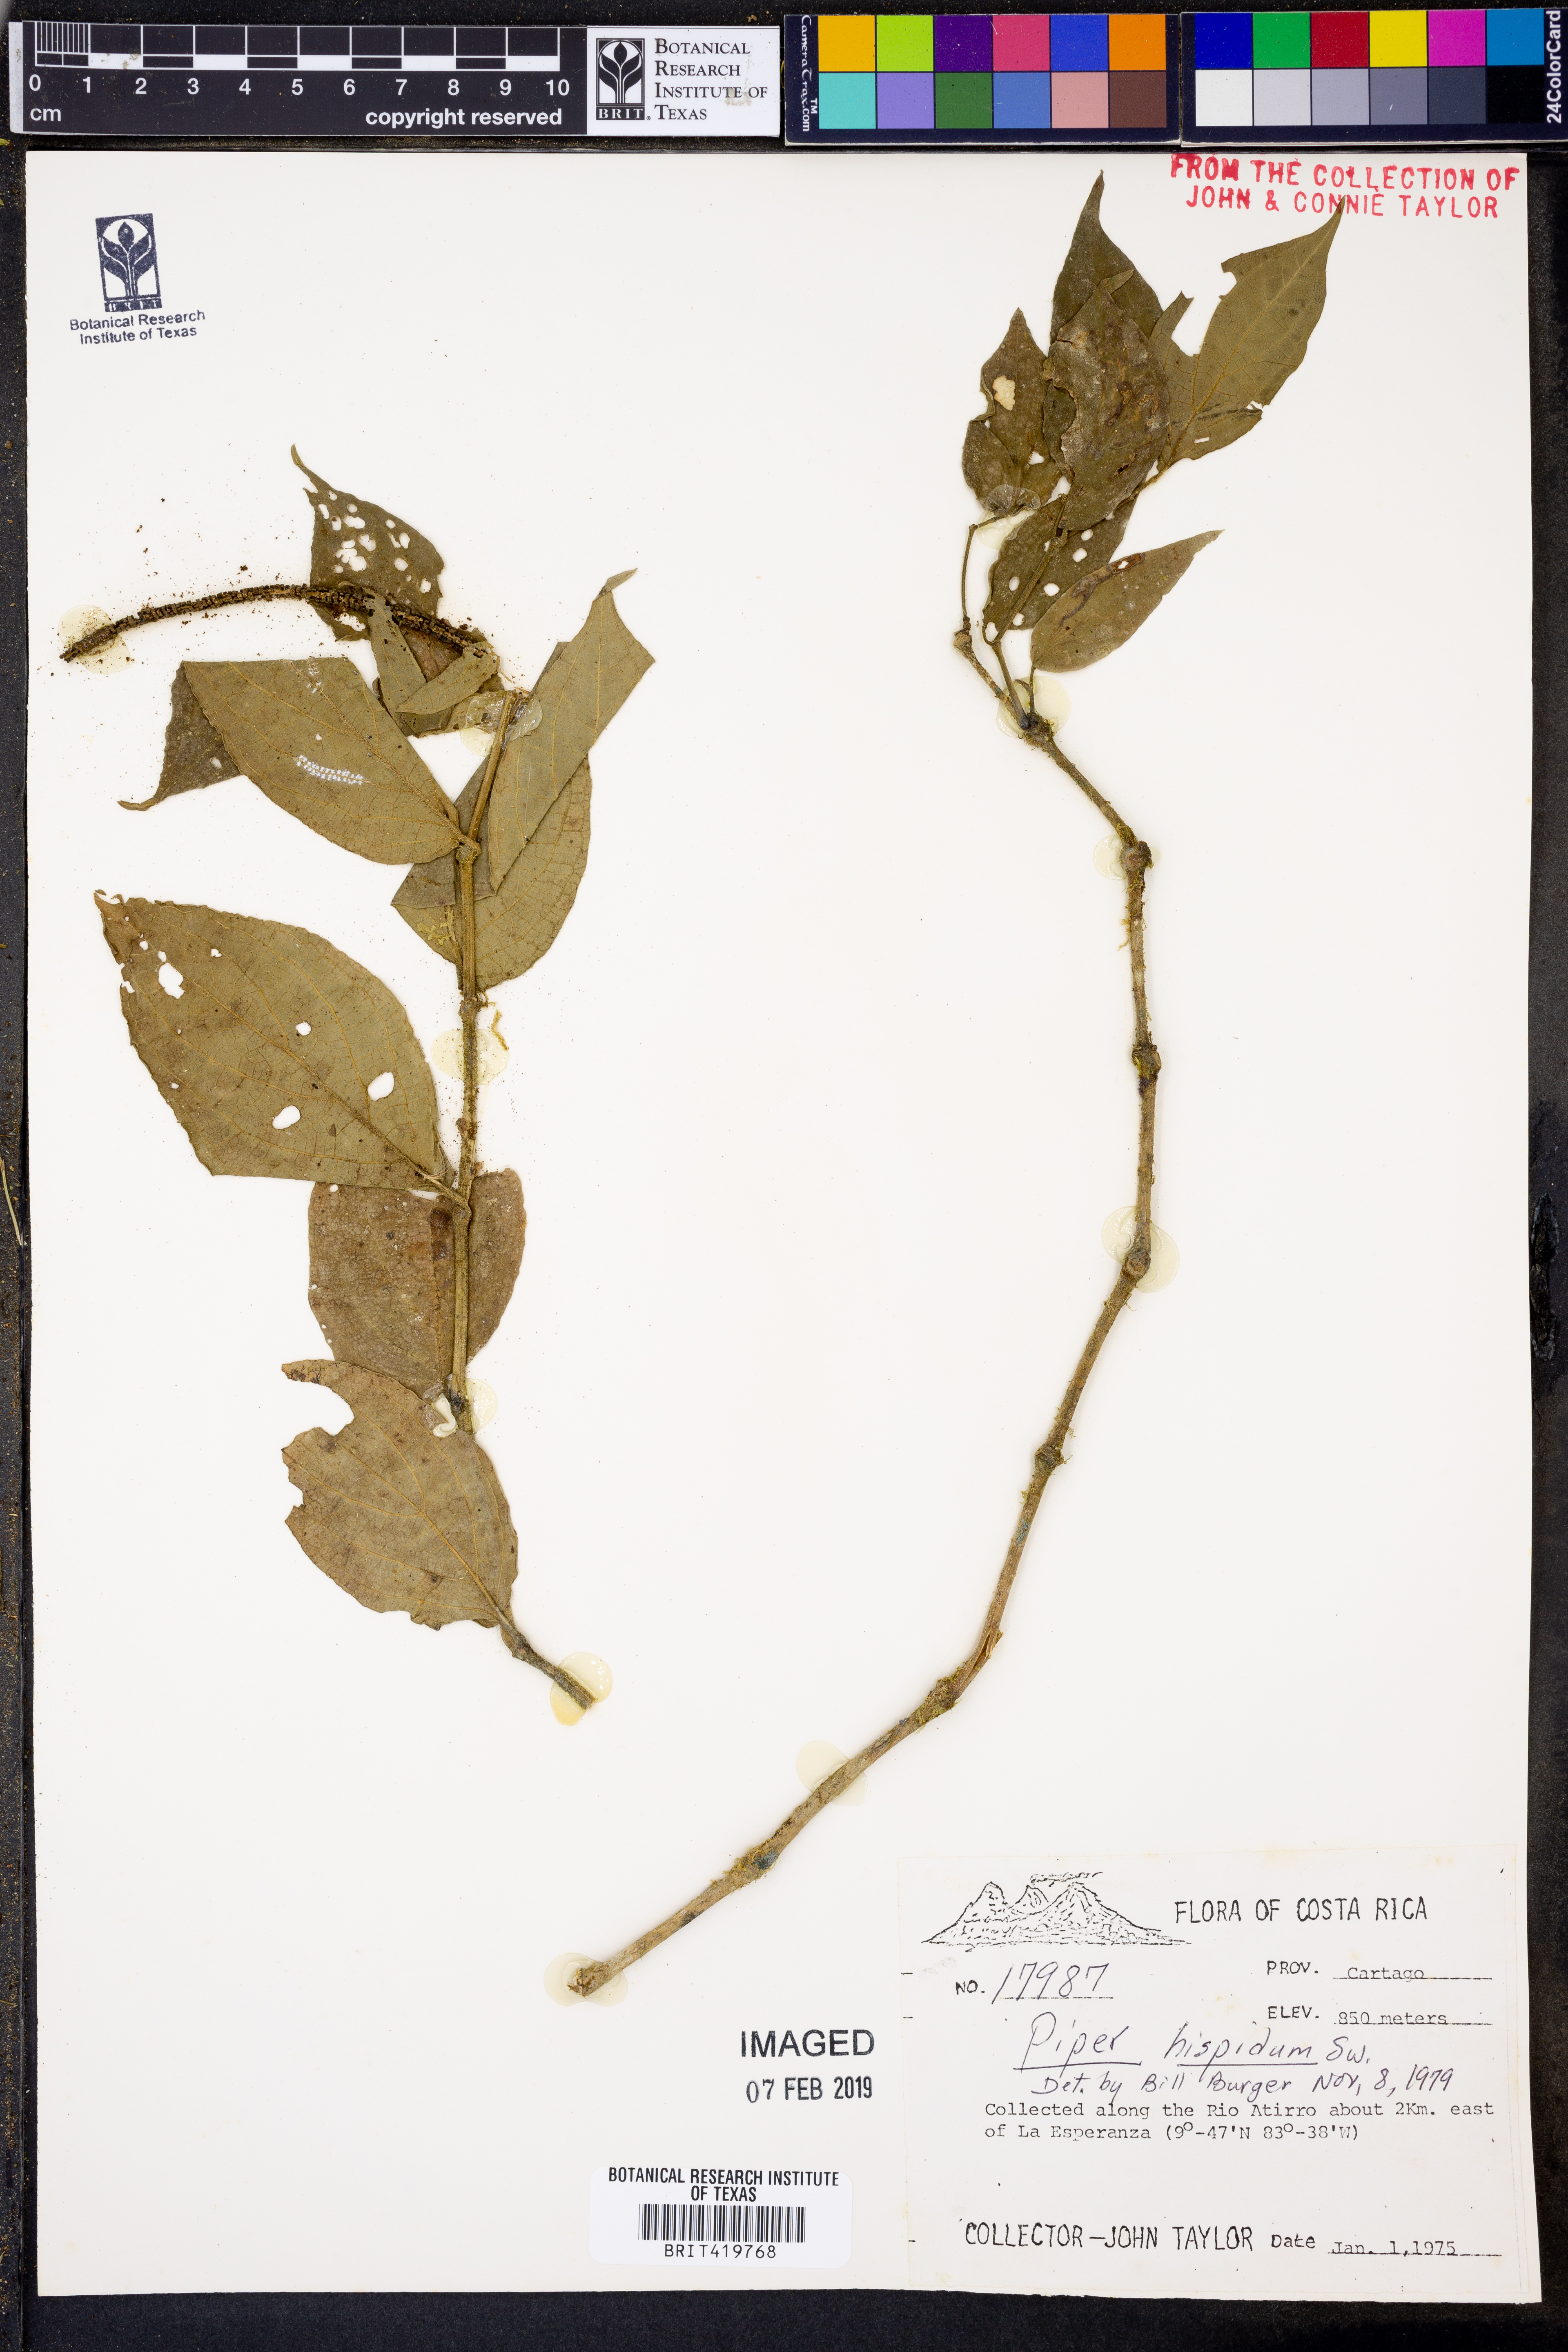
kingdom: Plantae
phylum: Tracheophyta
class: Magnoliopsida
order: Piperales
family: Piperaceae
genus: Piper
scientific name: Piper hispidum
